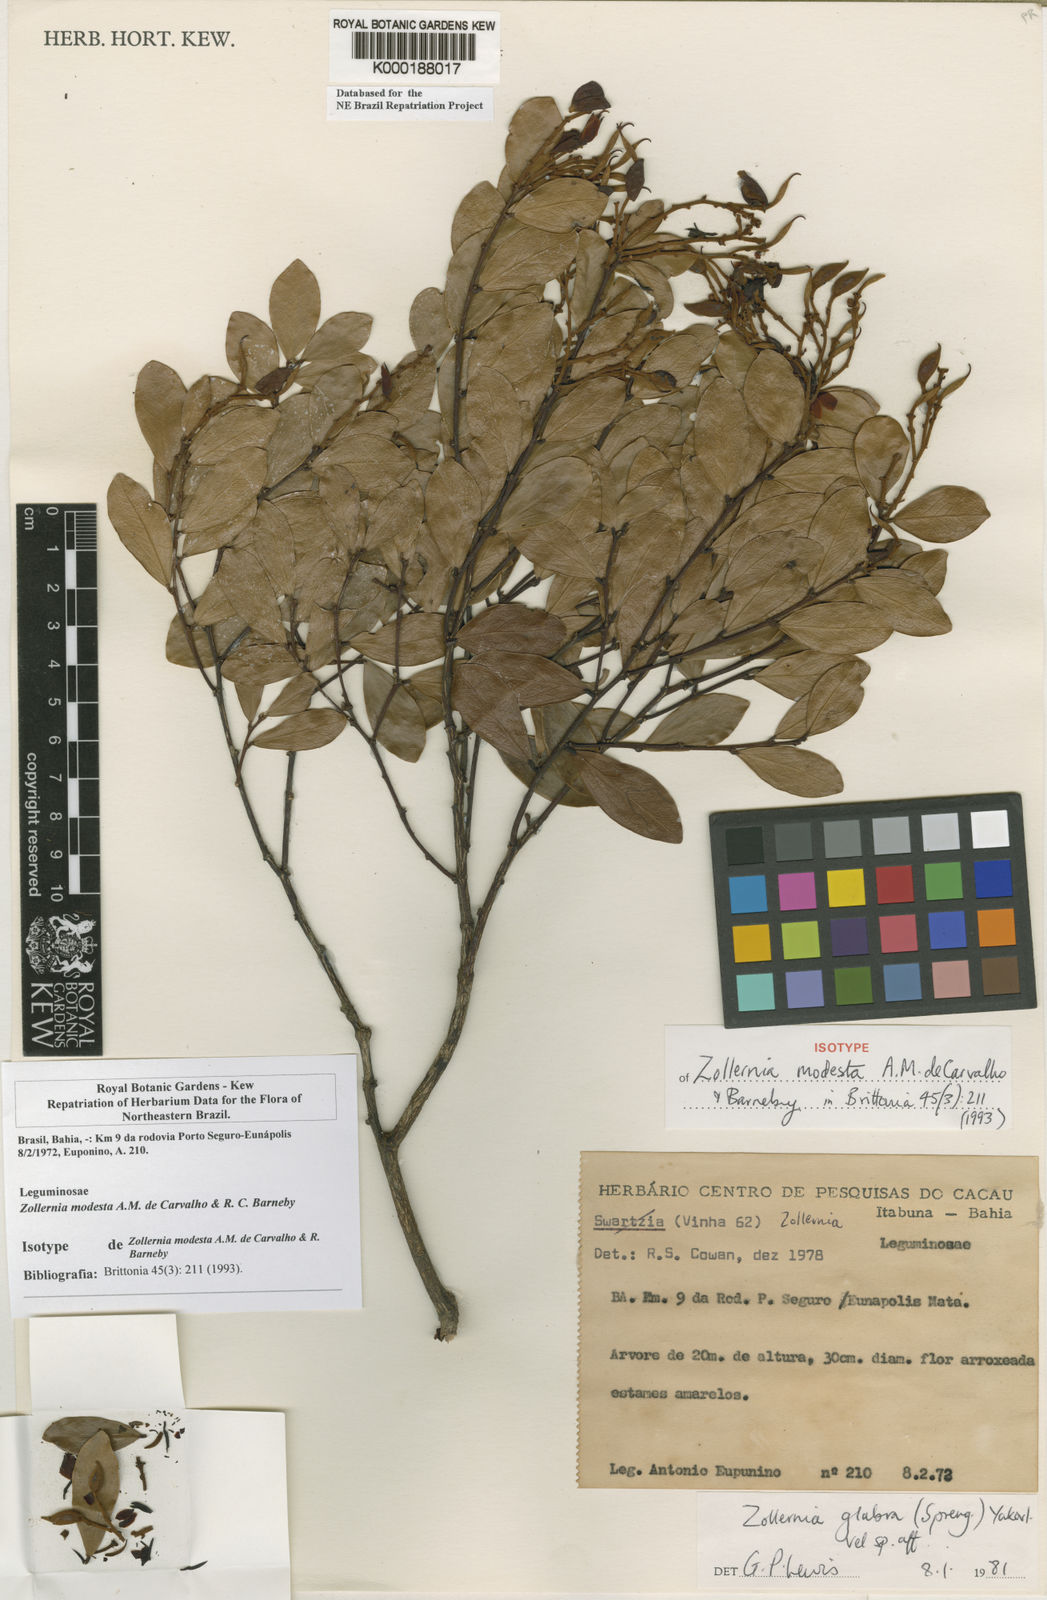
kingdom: Plantae
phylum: Tracheophyta
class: Magnoliopsida
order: Fabales
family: Fabaceae
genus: Zollernia
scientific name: Zollernia modesta
